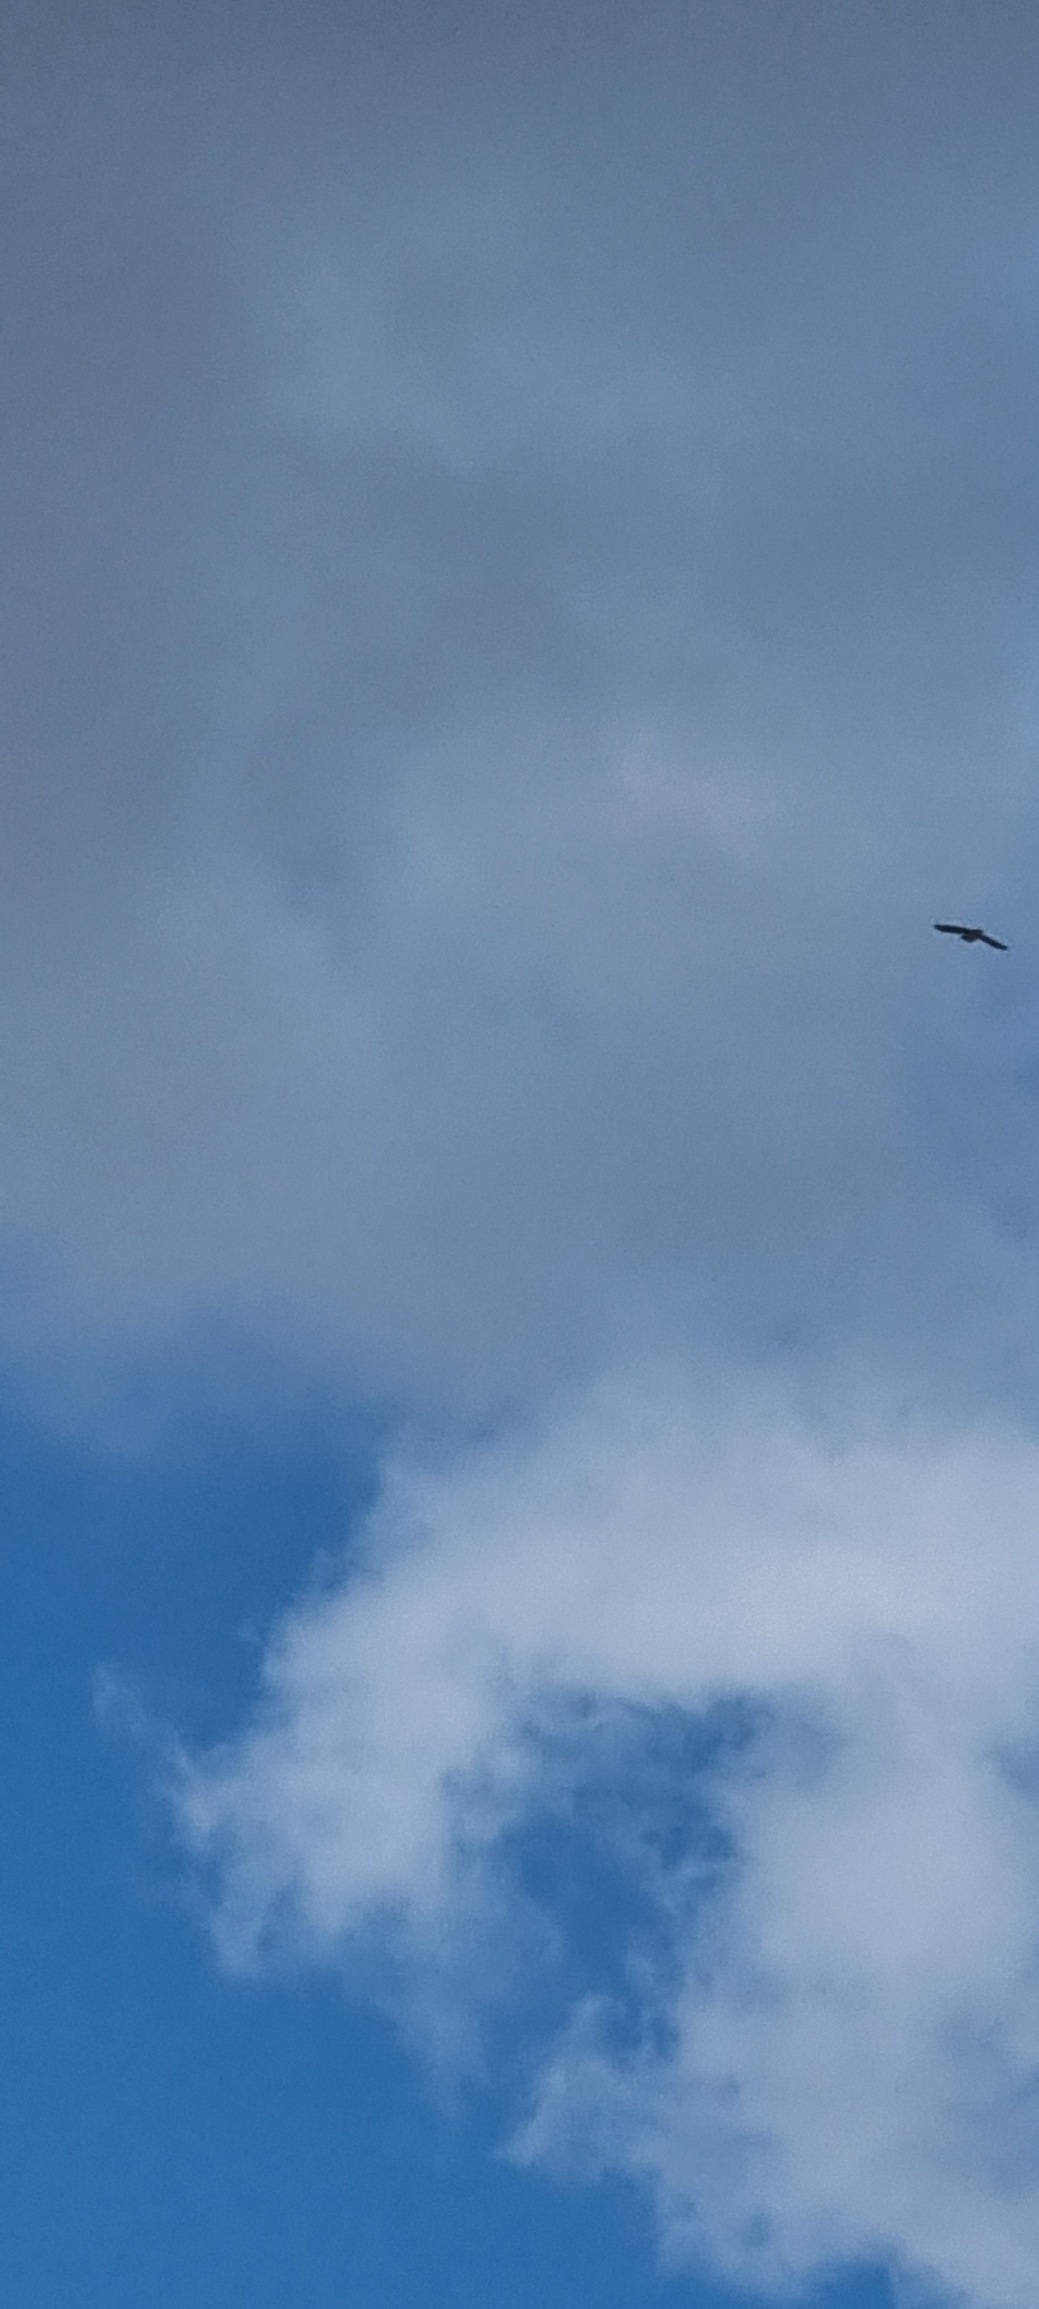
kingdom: Animalia
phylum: Chordata
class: Aves
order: Passeriformes
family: Alaudidae
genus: Alauda
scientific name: Alauda arvensis
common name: Sanglærke
